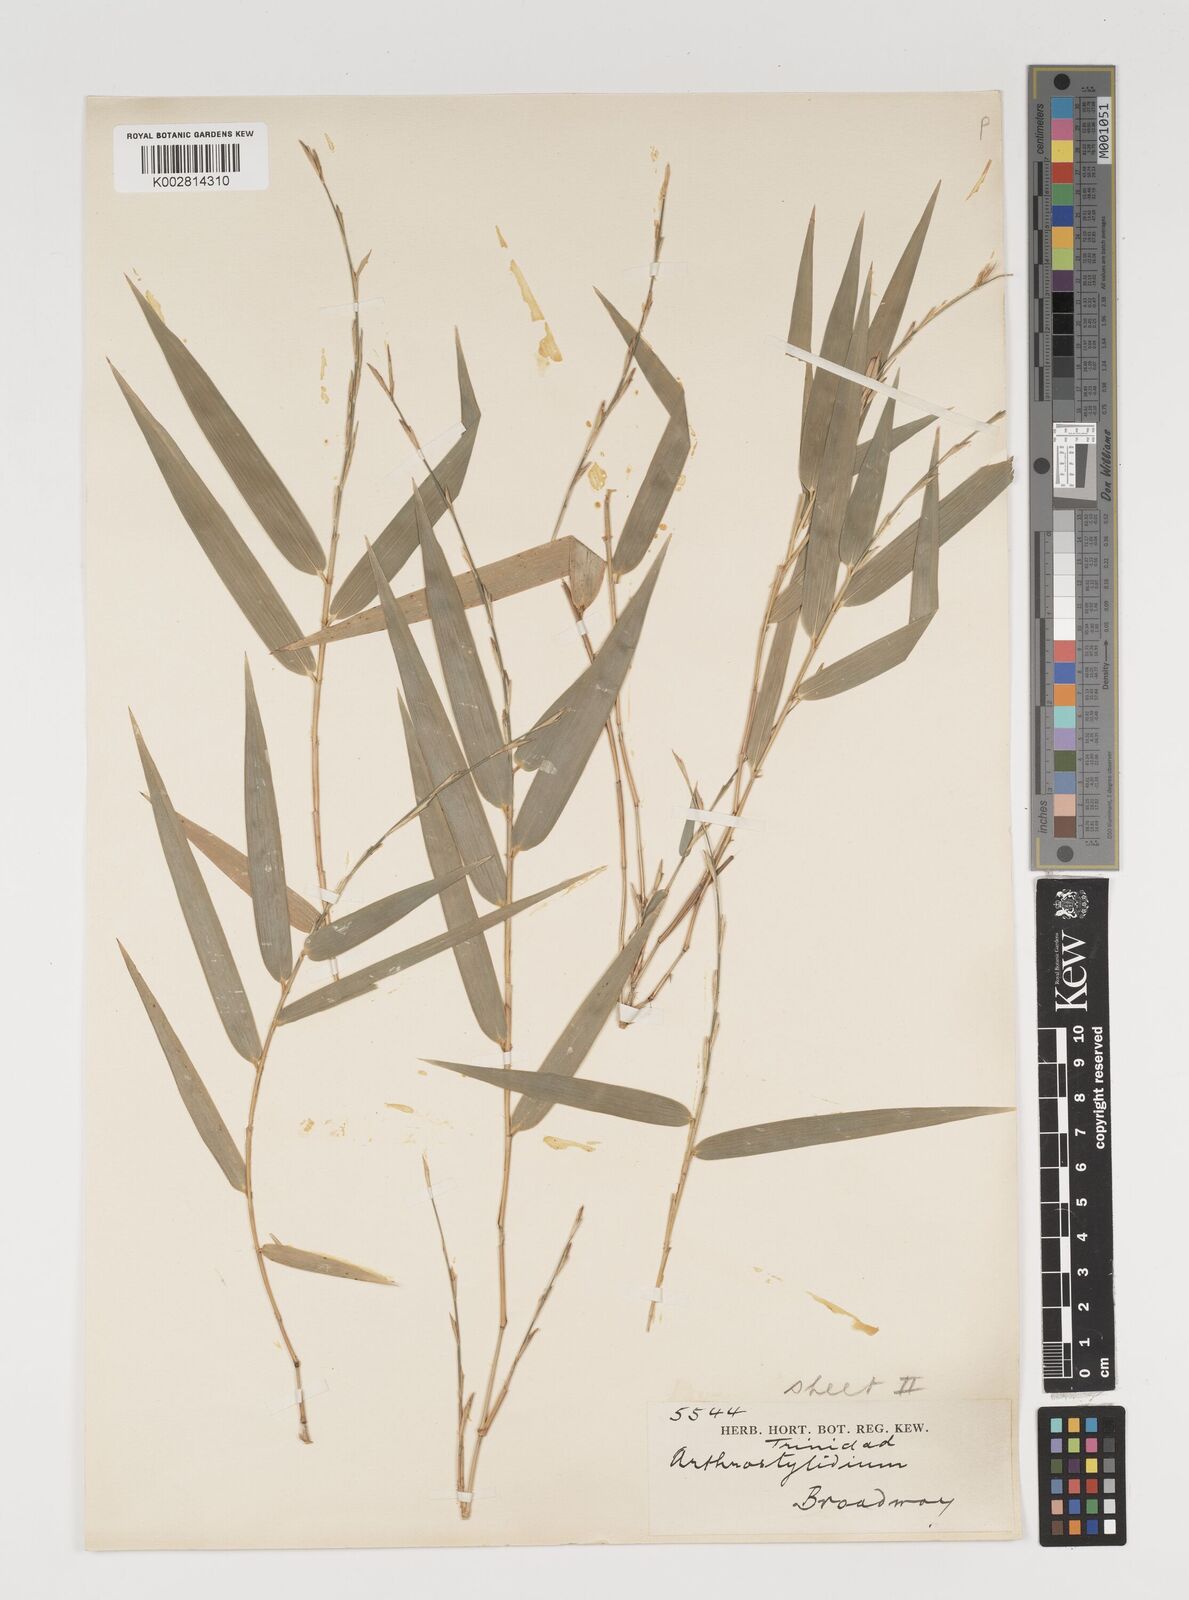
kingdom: Plantae
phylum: Tracheophyta
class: Liliopsida
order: Poales
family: Poaceae
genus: Arthrostylidium
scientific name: Arthrostylidium
